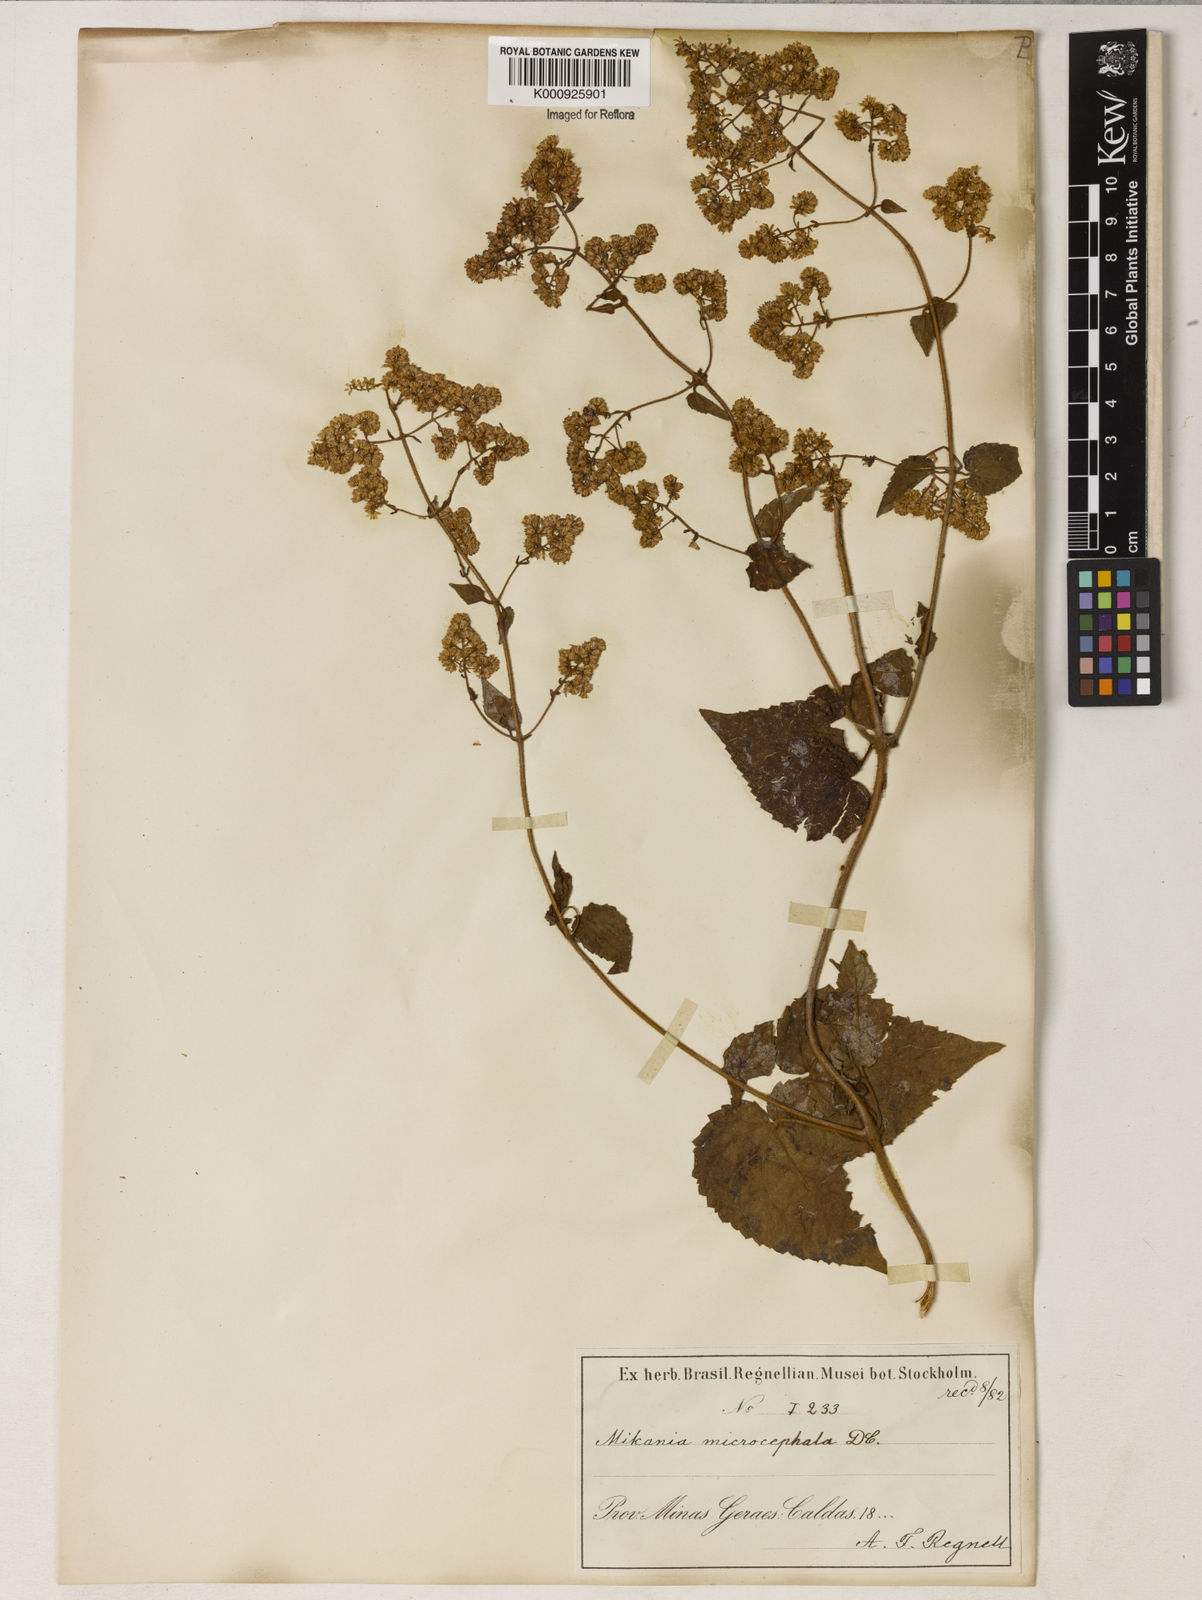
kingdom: Plantae
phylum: Tracheophyta
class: Magnoliopsida
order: Asterales
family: Asteraceae
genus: Mikania
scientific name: Mikania microcephala
